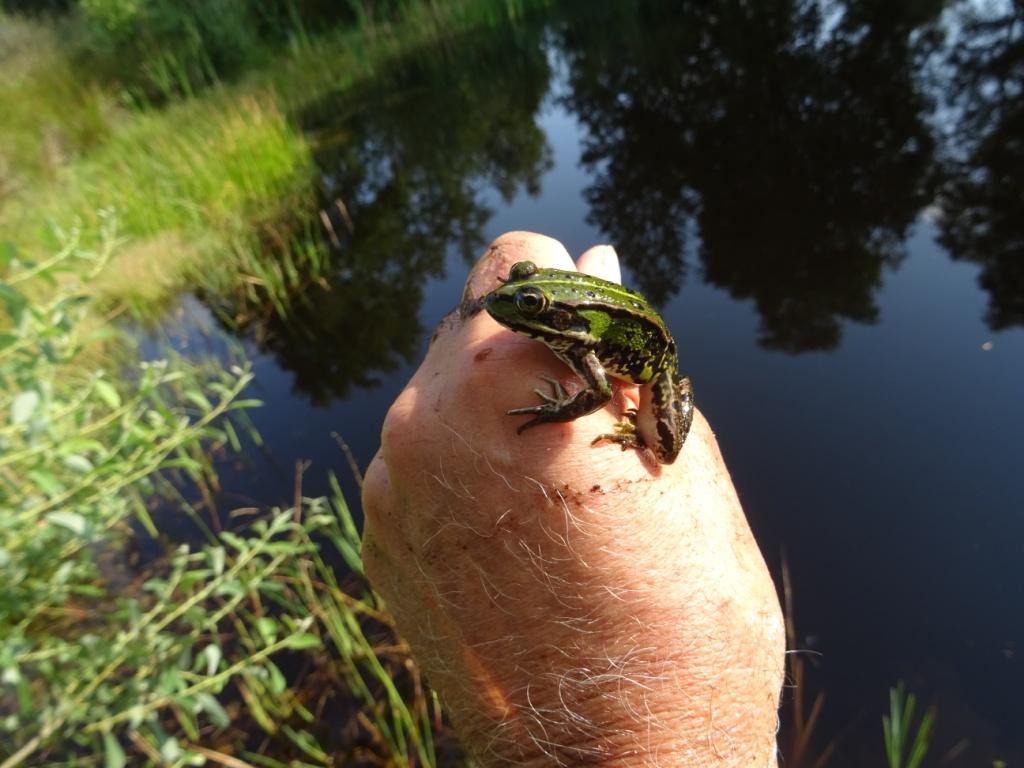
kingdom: Animalia
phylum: Chordata
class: Amphibia
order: Anura
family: Ranidae
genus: Pelophylax
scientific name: Pelophylax lessonae
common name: Grøn frø
